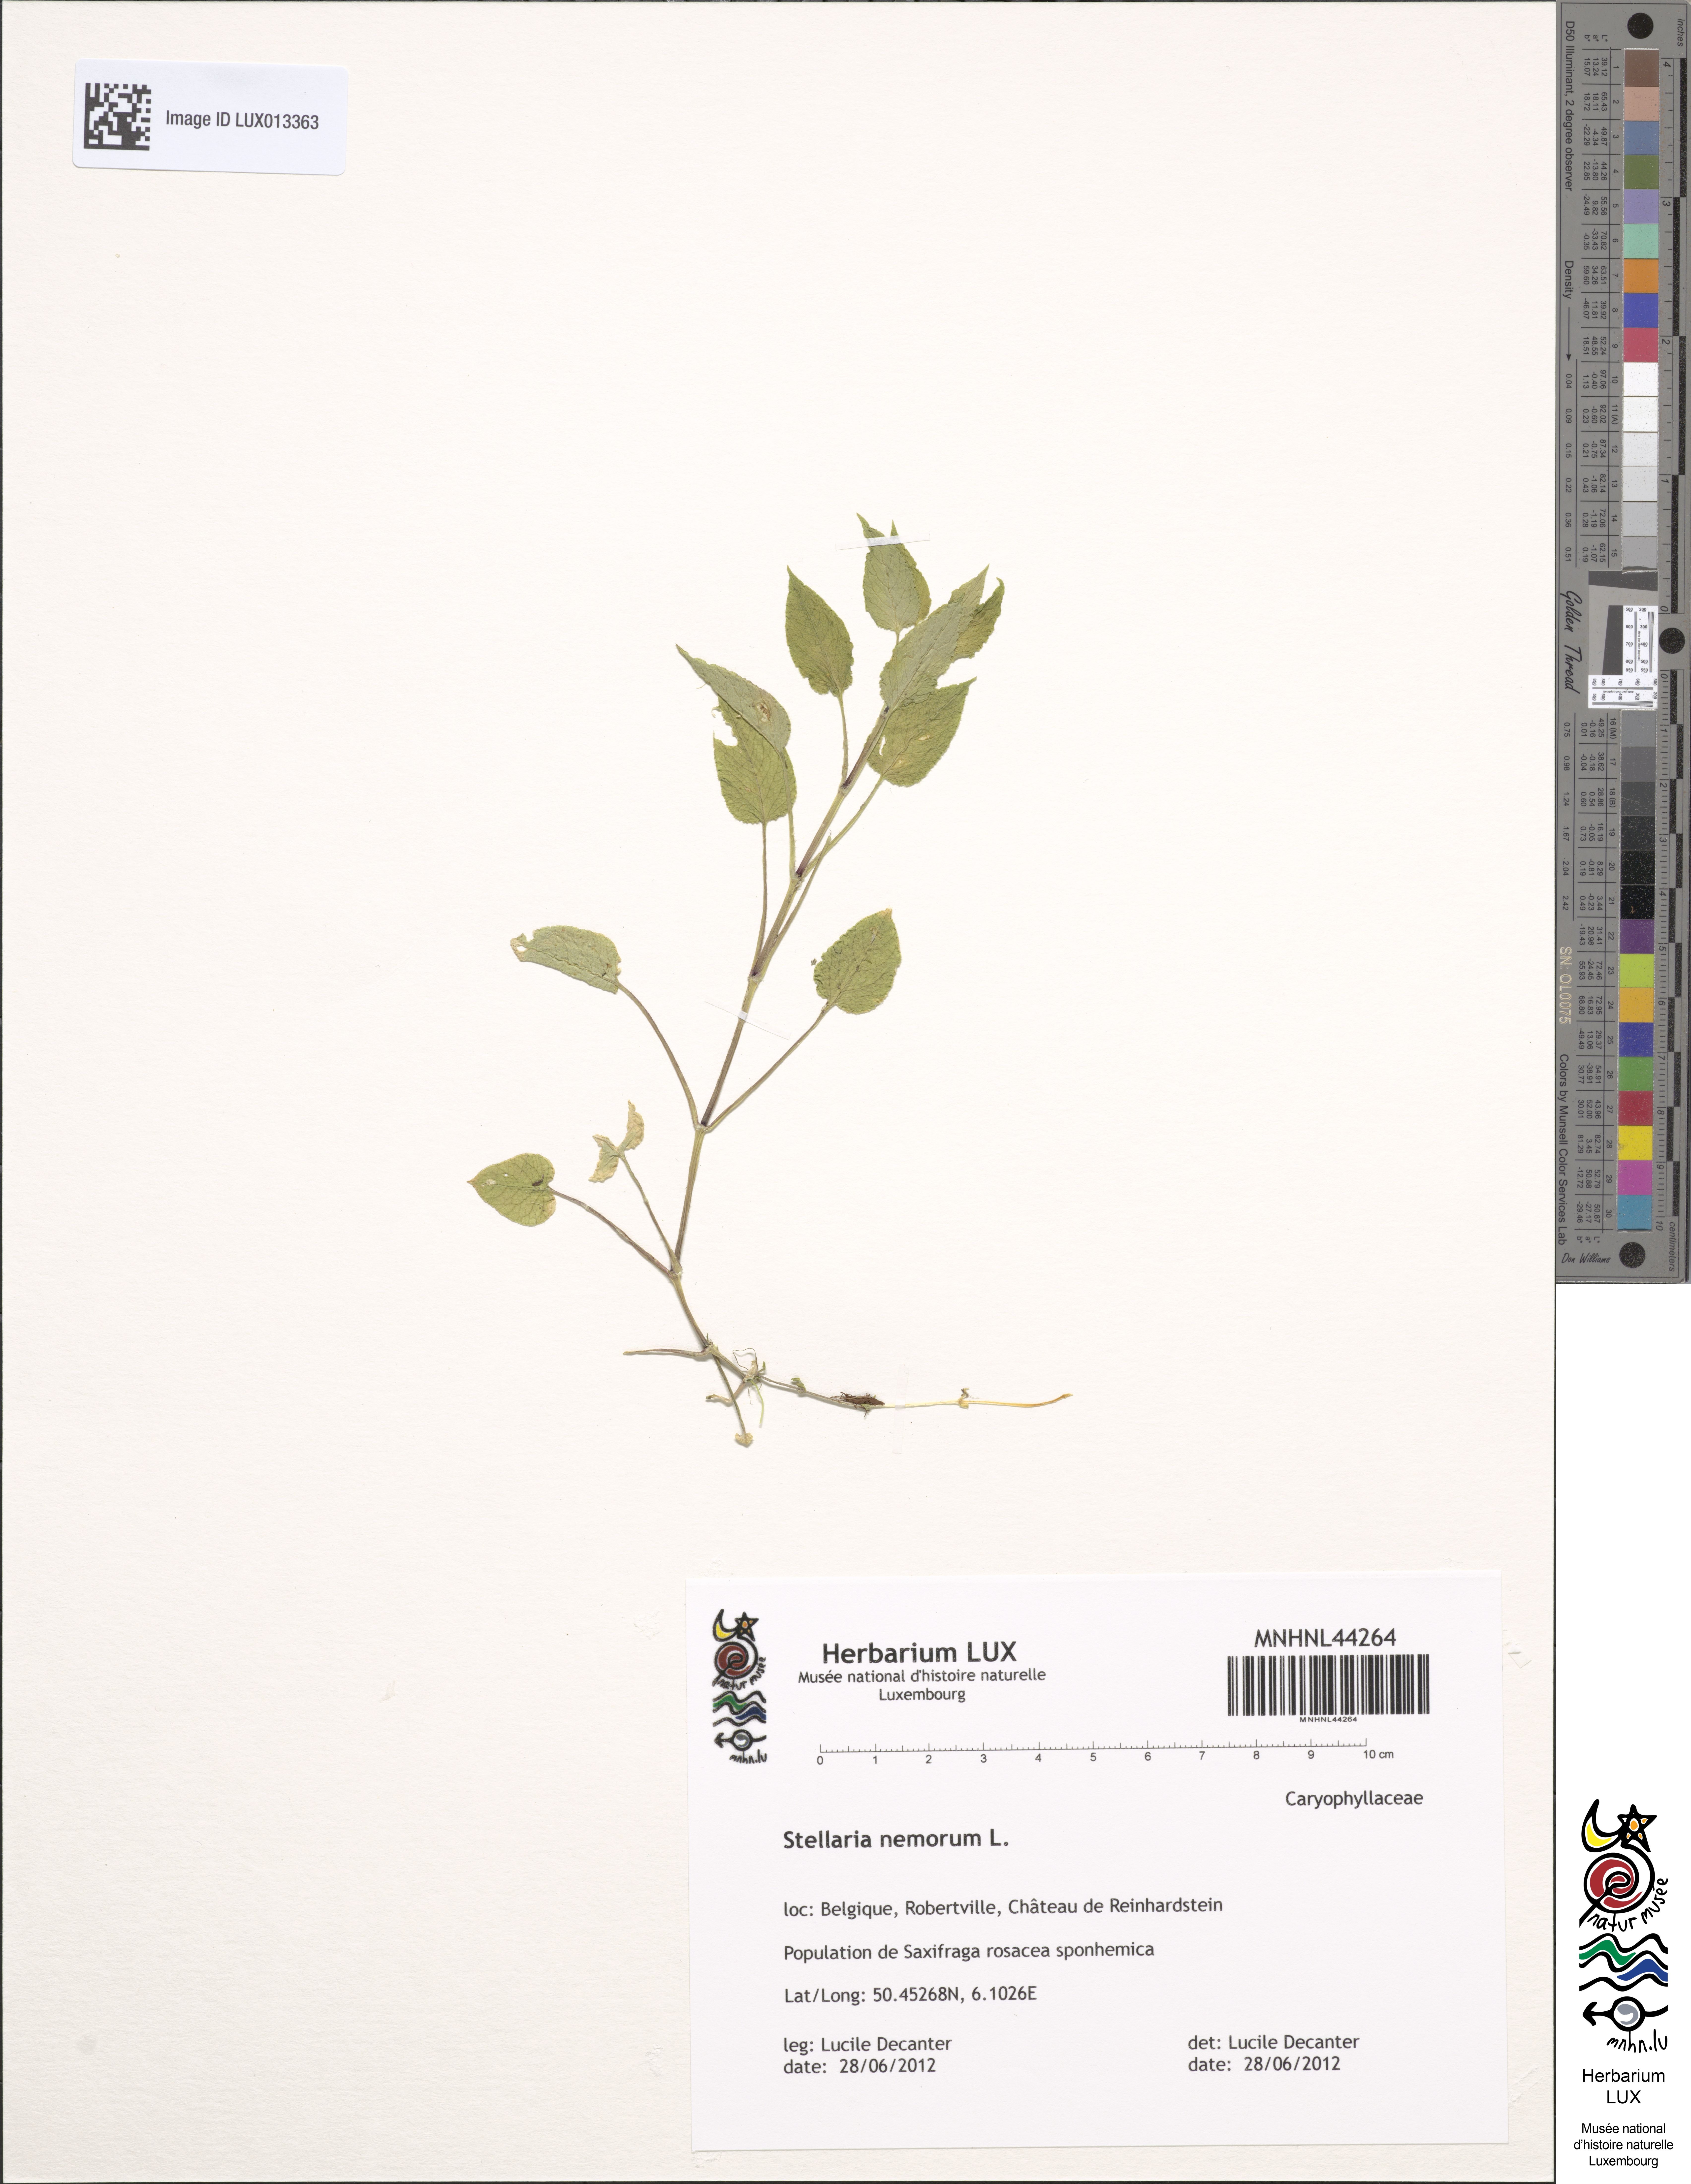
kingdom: Plantae
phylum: Tracheophyta
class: Magnoliopsida
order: Caryophyllales
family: Caryophyllaceae
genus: Stellaria
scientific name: Stellaria nemorum
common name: Wood stitchwort
